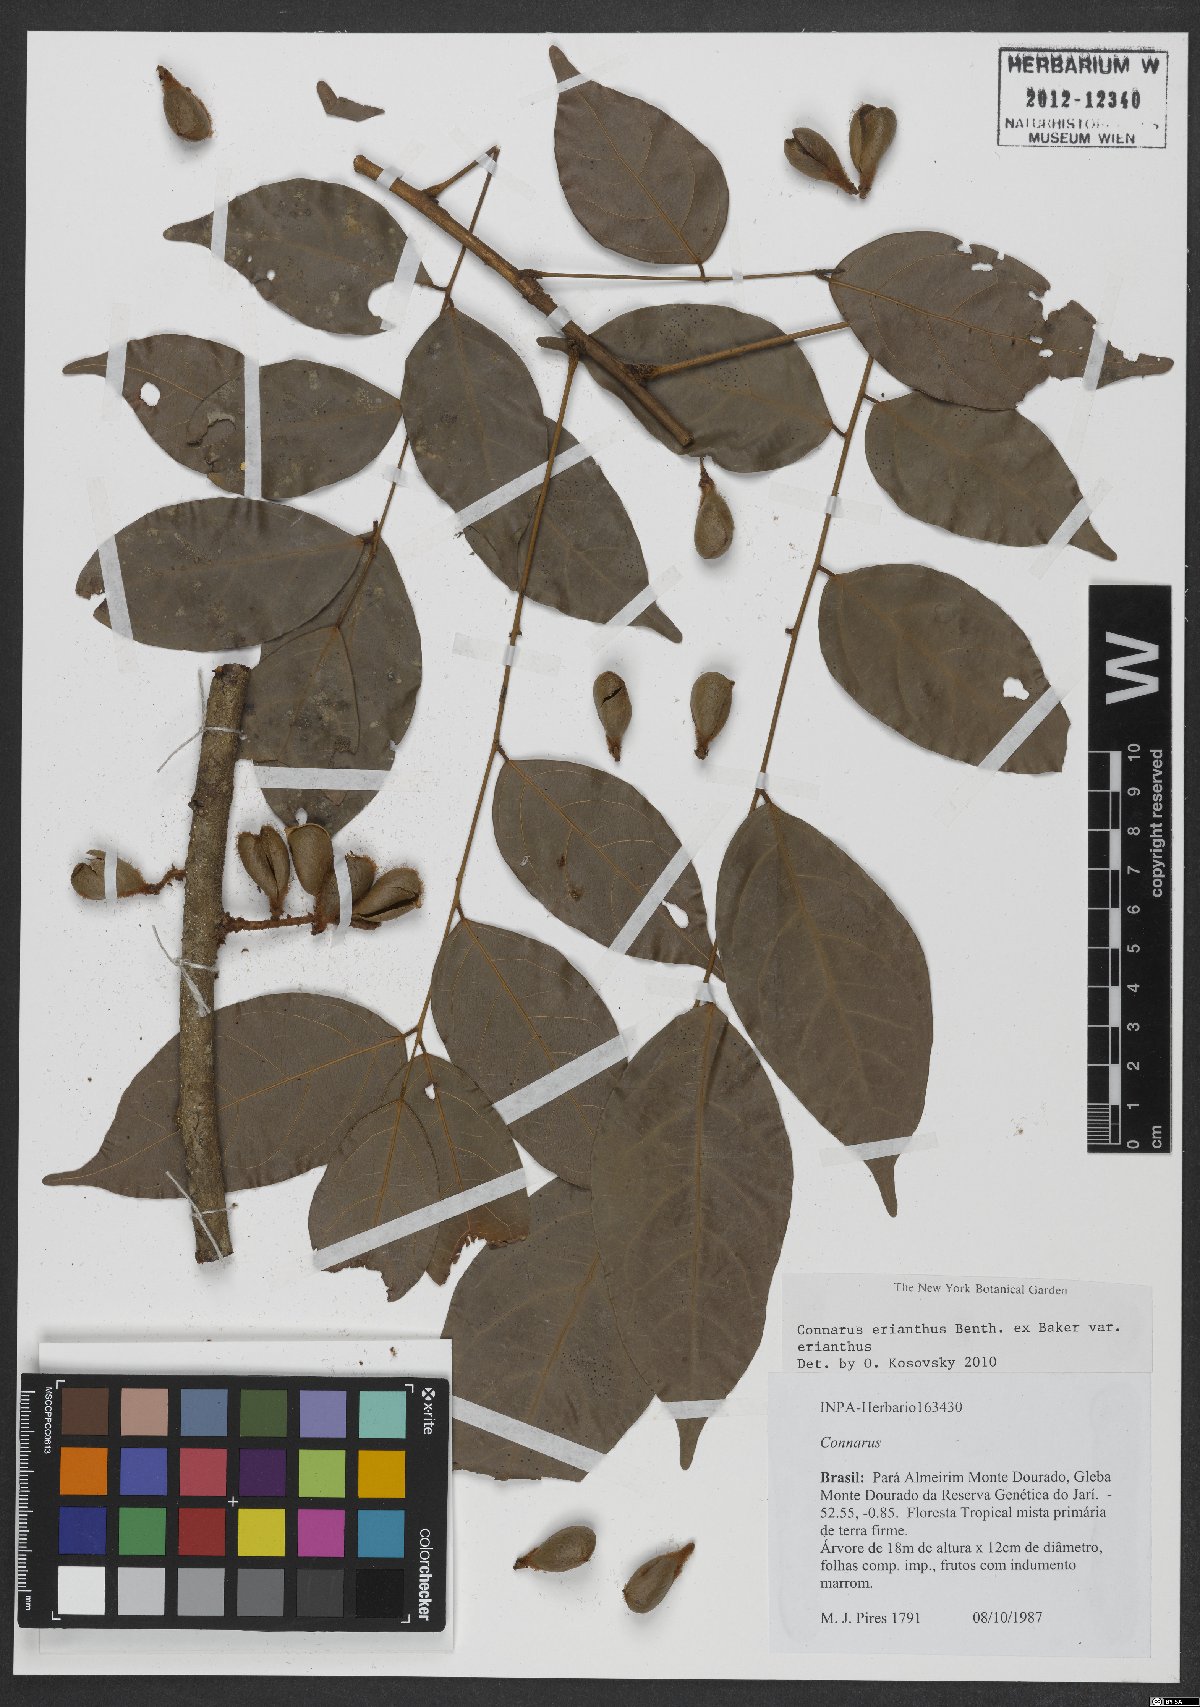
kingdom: Plantae
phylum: Tracheophyta
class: Magnoliopsida
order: Oxalidales
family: Connaraceae
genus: Connarus
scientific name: Connarus erianthus
